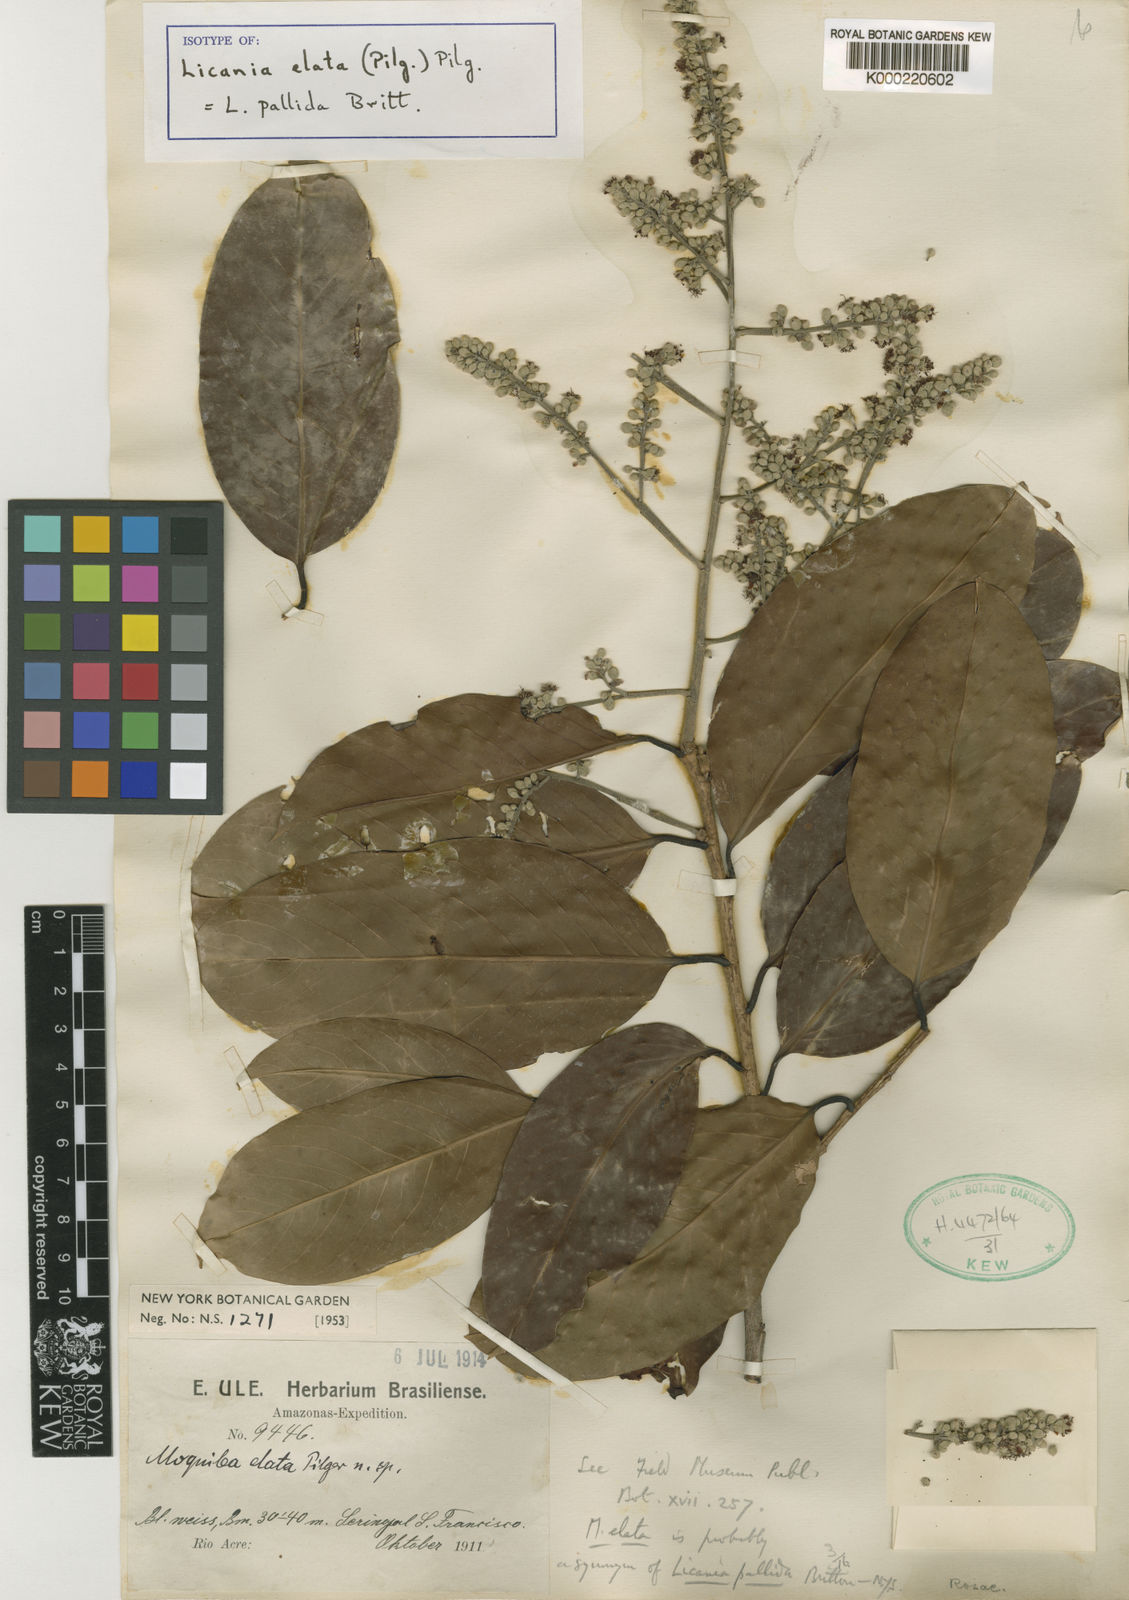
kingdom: Plantae
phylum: Tracheophyta
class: Magnoliopsida
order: Malpighiales
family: Chrysobalanaceae
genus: Licania
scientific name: Licania
